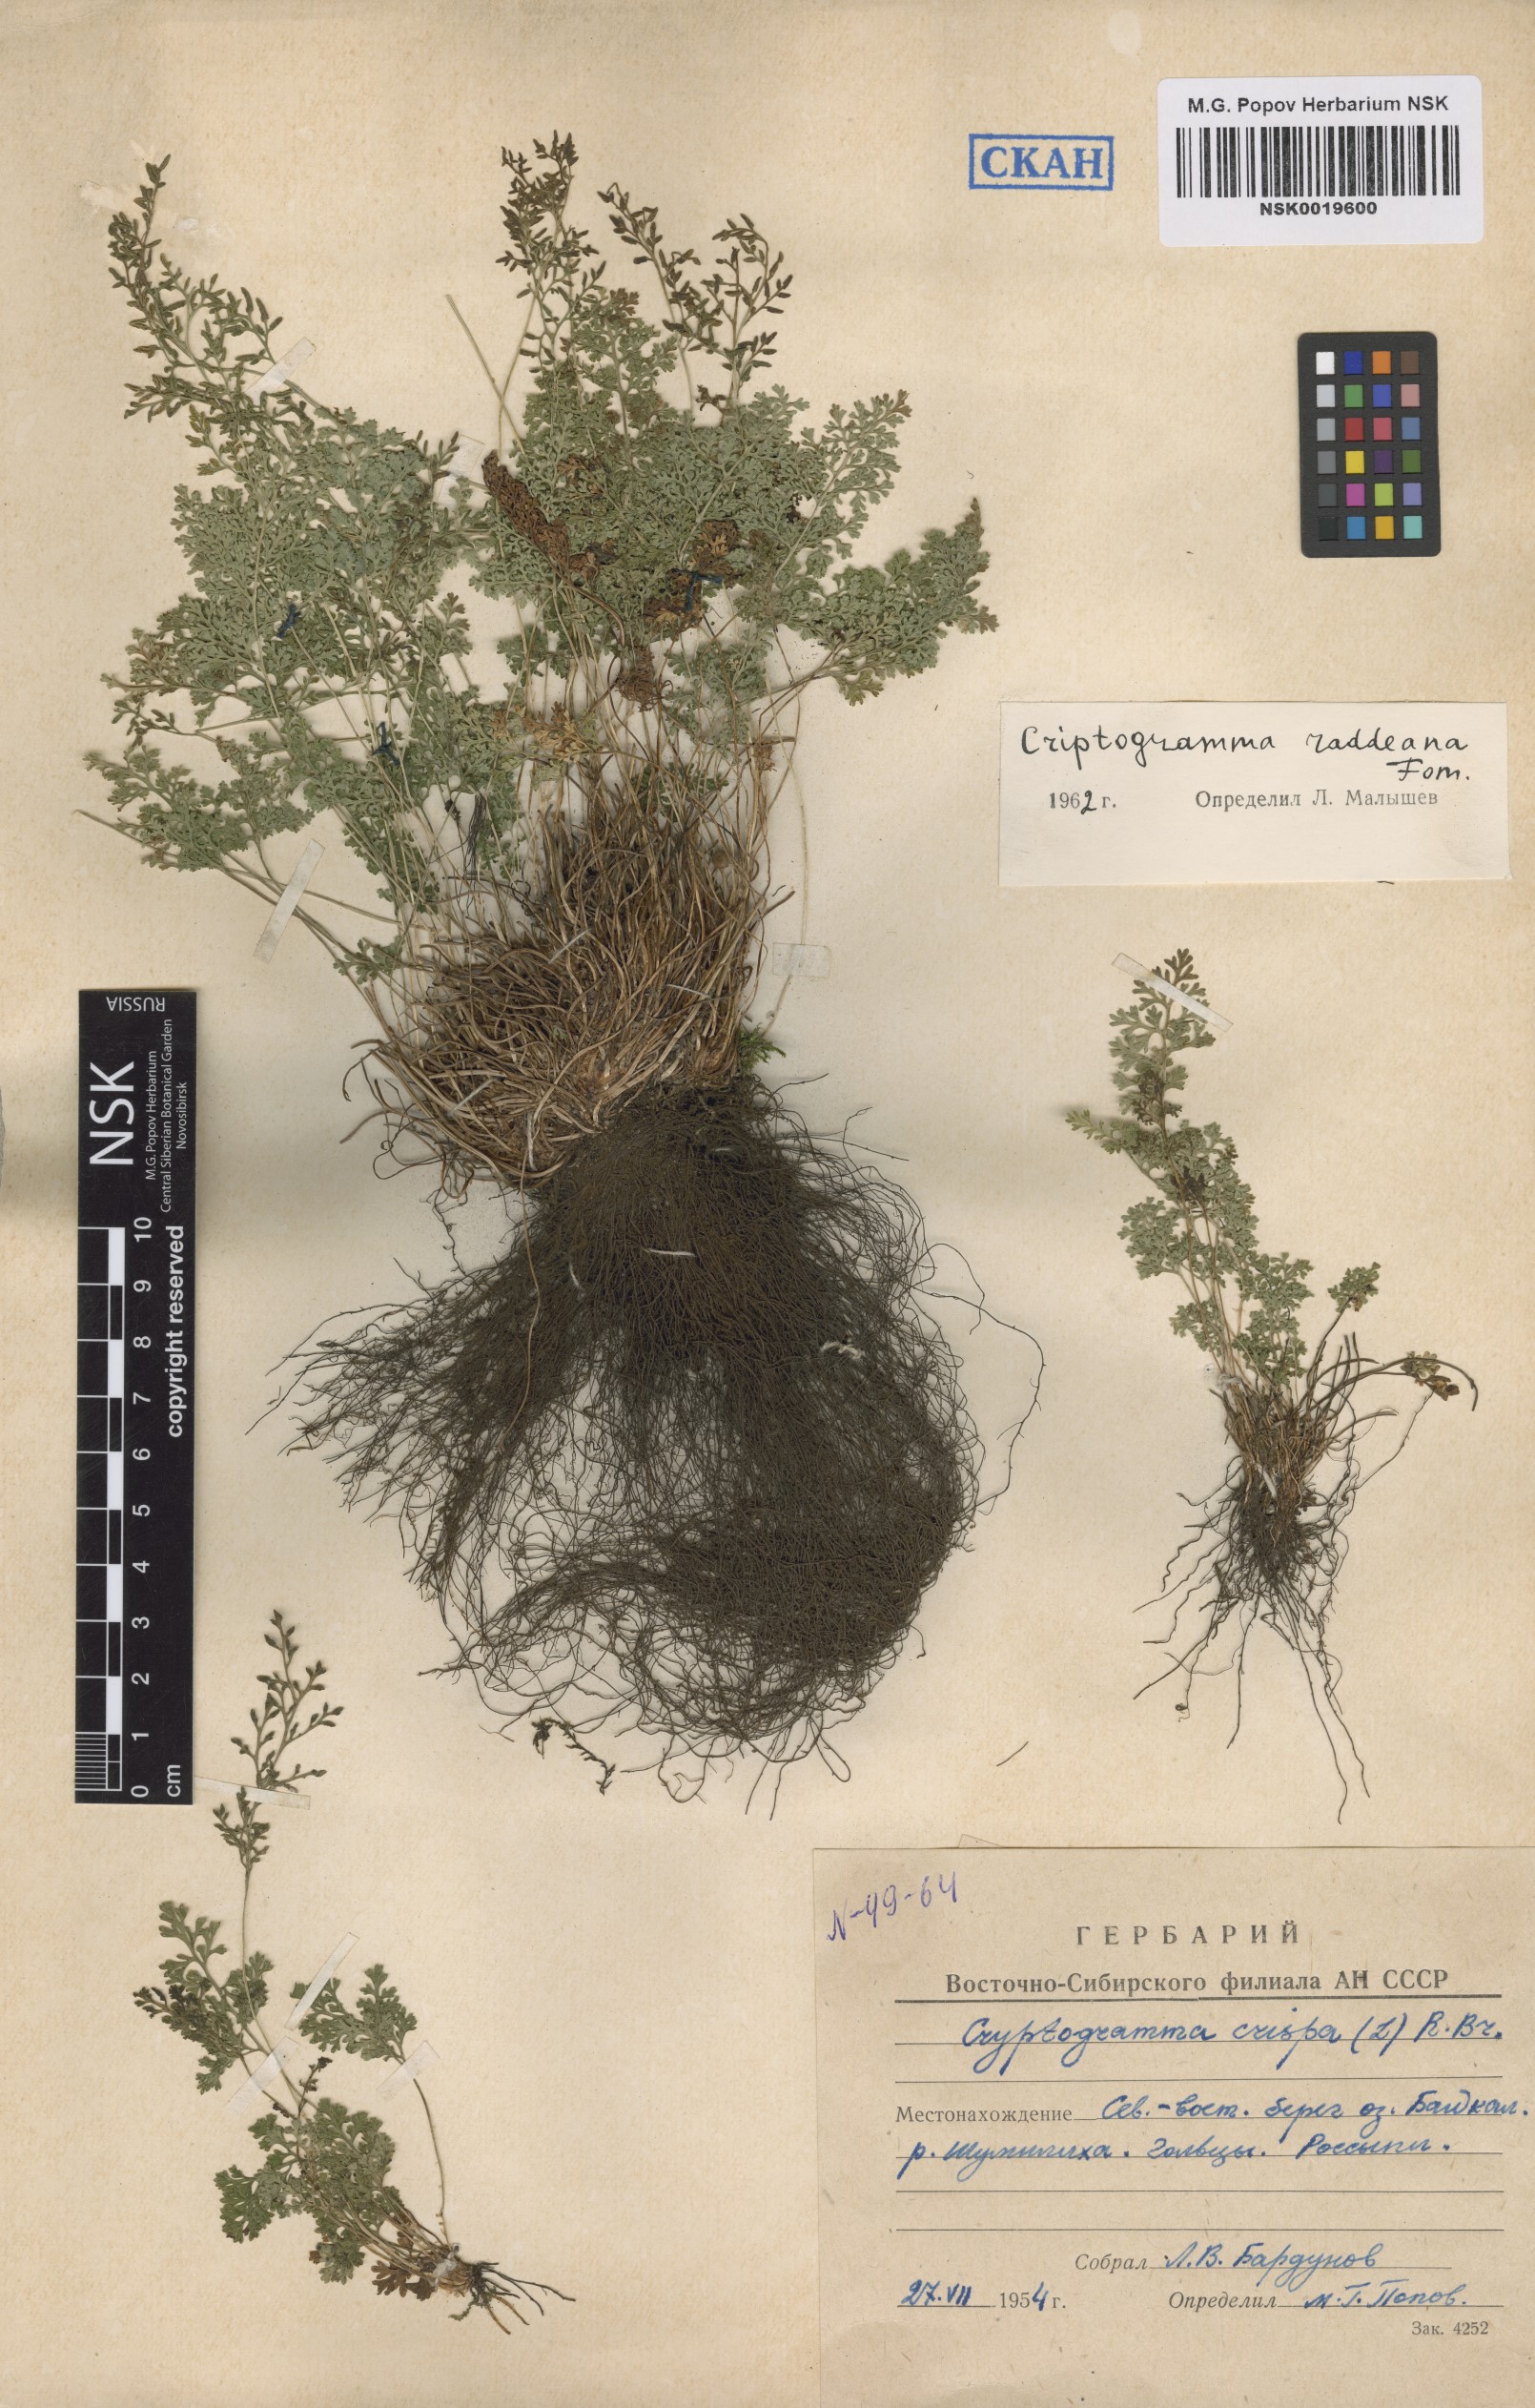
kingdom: Plantae
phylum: Tracheophyta
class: Polypodiopsida
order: Polypodiales
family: Pteridaceae
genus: Cryptogramma
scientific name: Cryptogramma brunoniana
